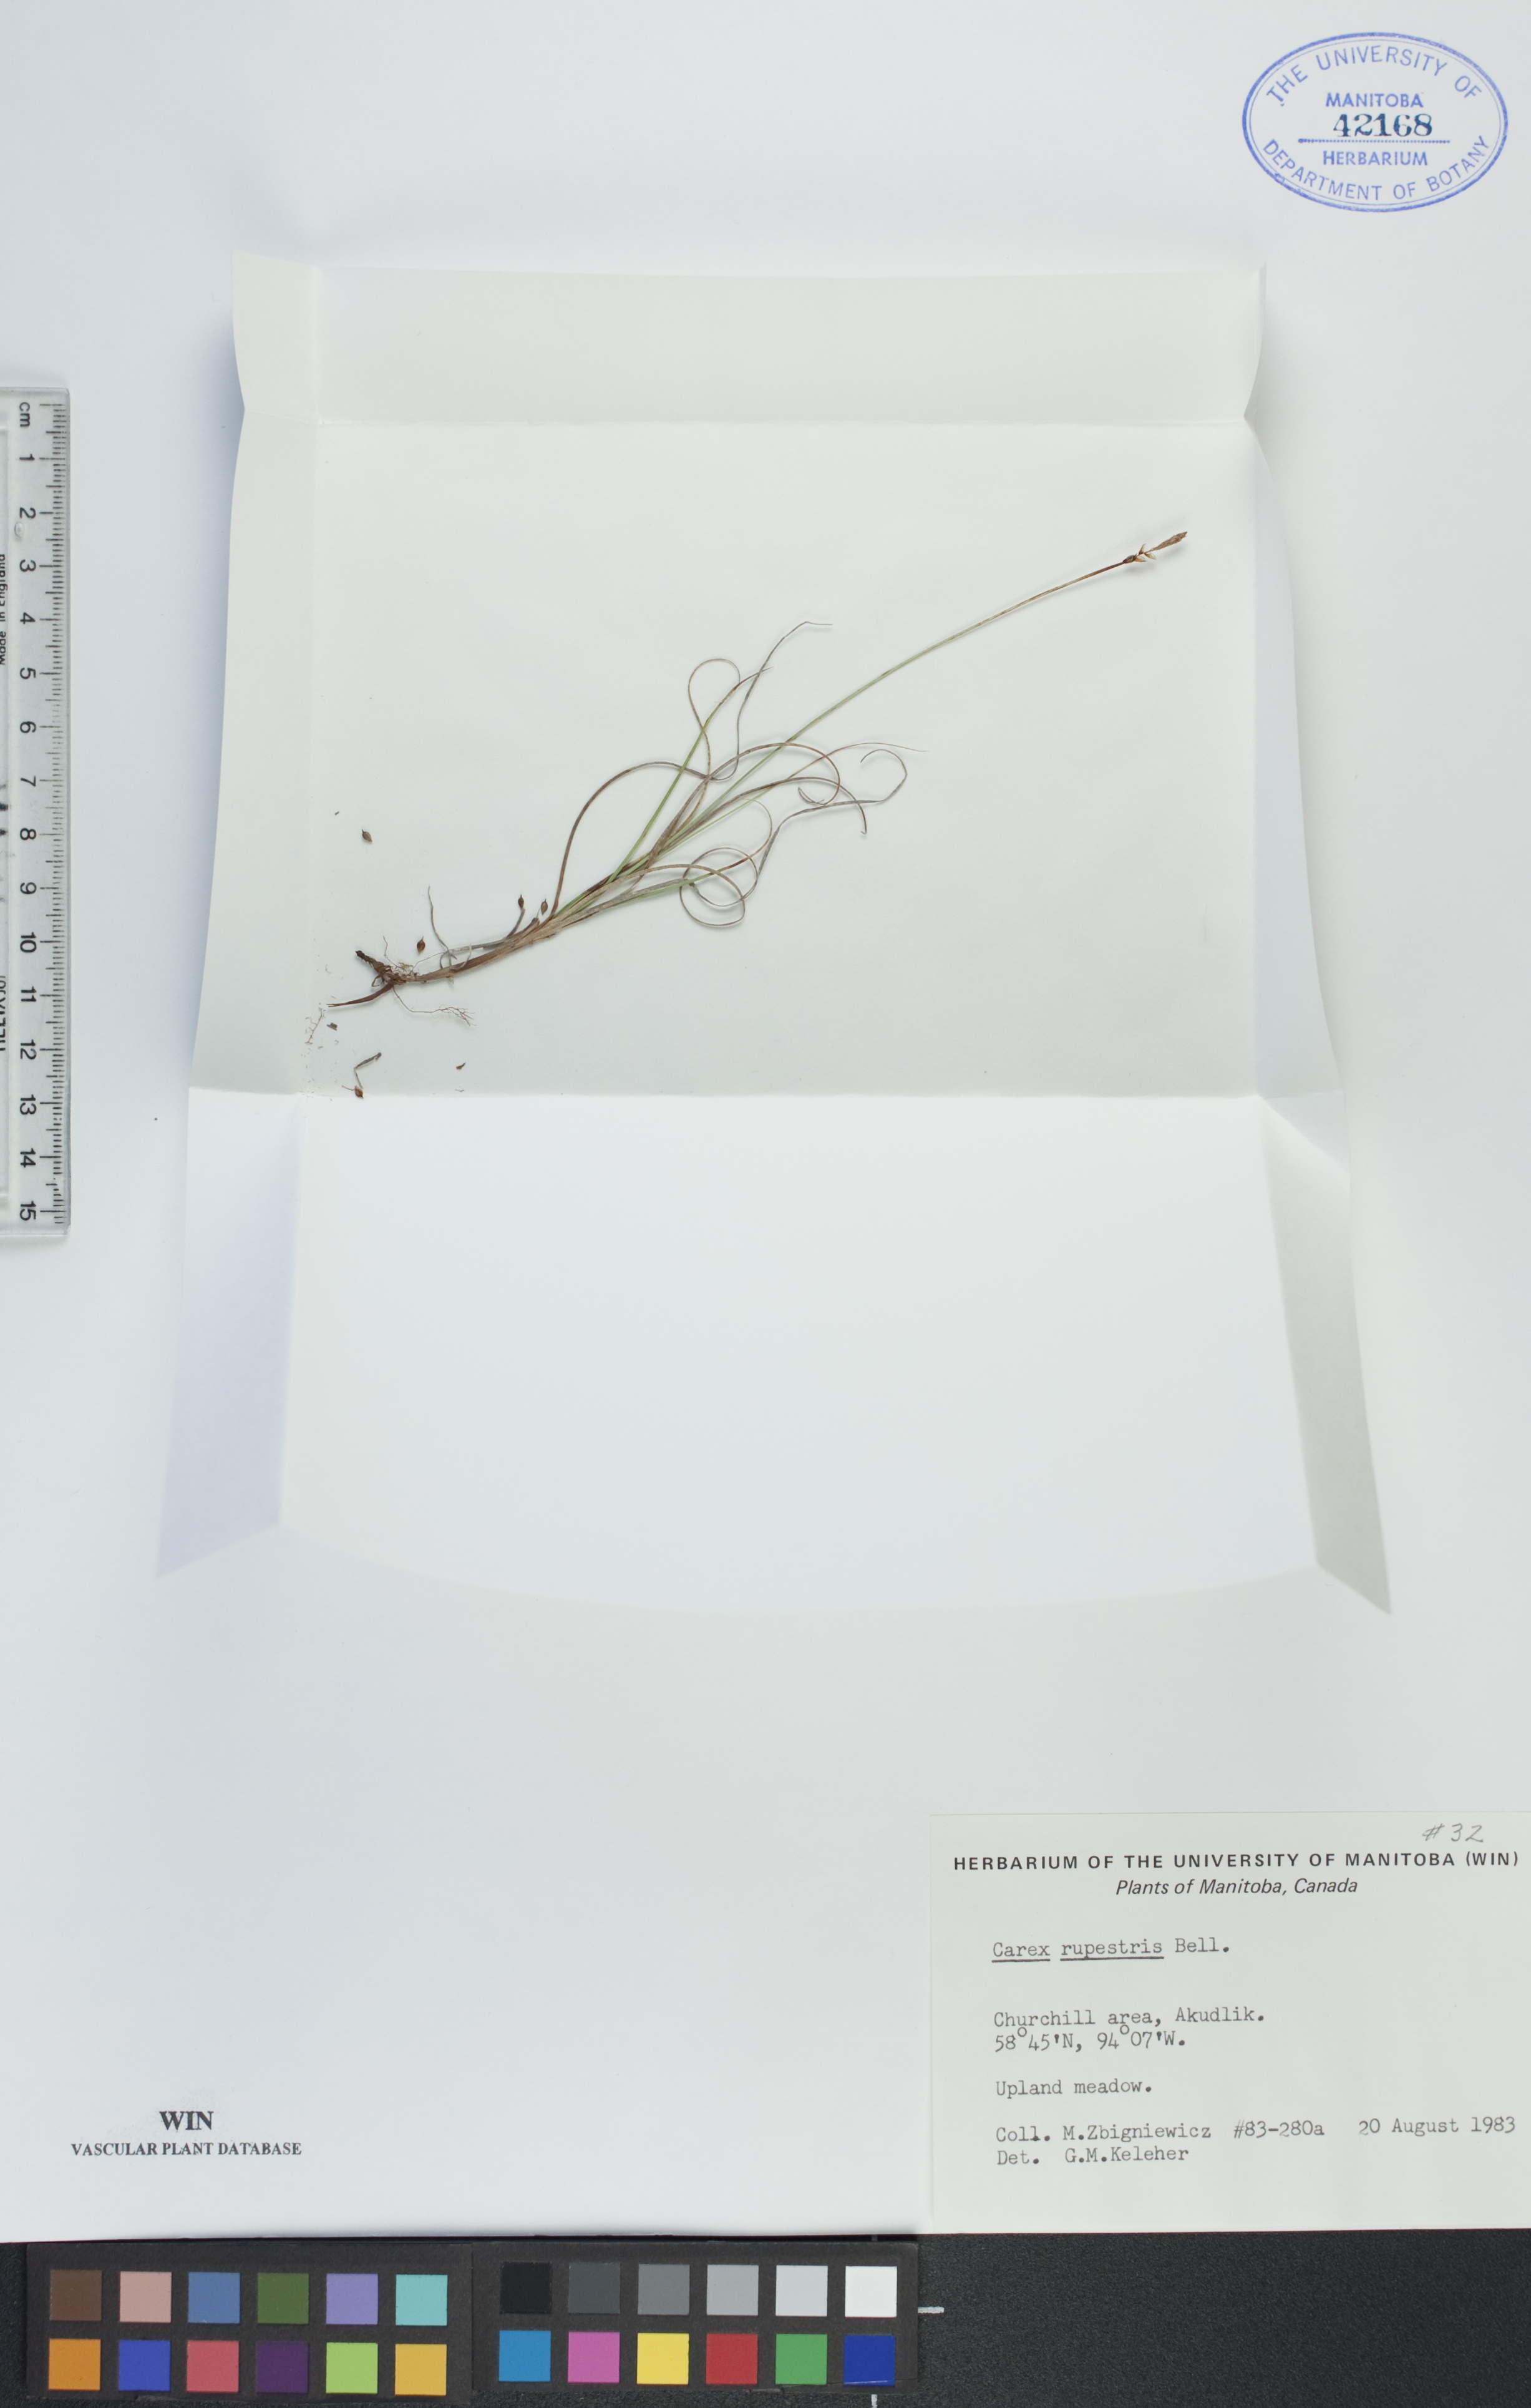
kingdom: Plantae
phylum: Tracheophyta
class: Liliopsida
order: Poales
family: Cyperaceae
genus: Carex
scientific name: Carex rupestris
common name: Rock sedge
